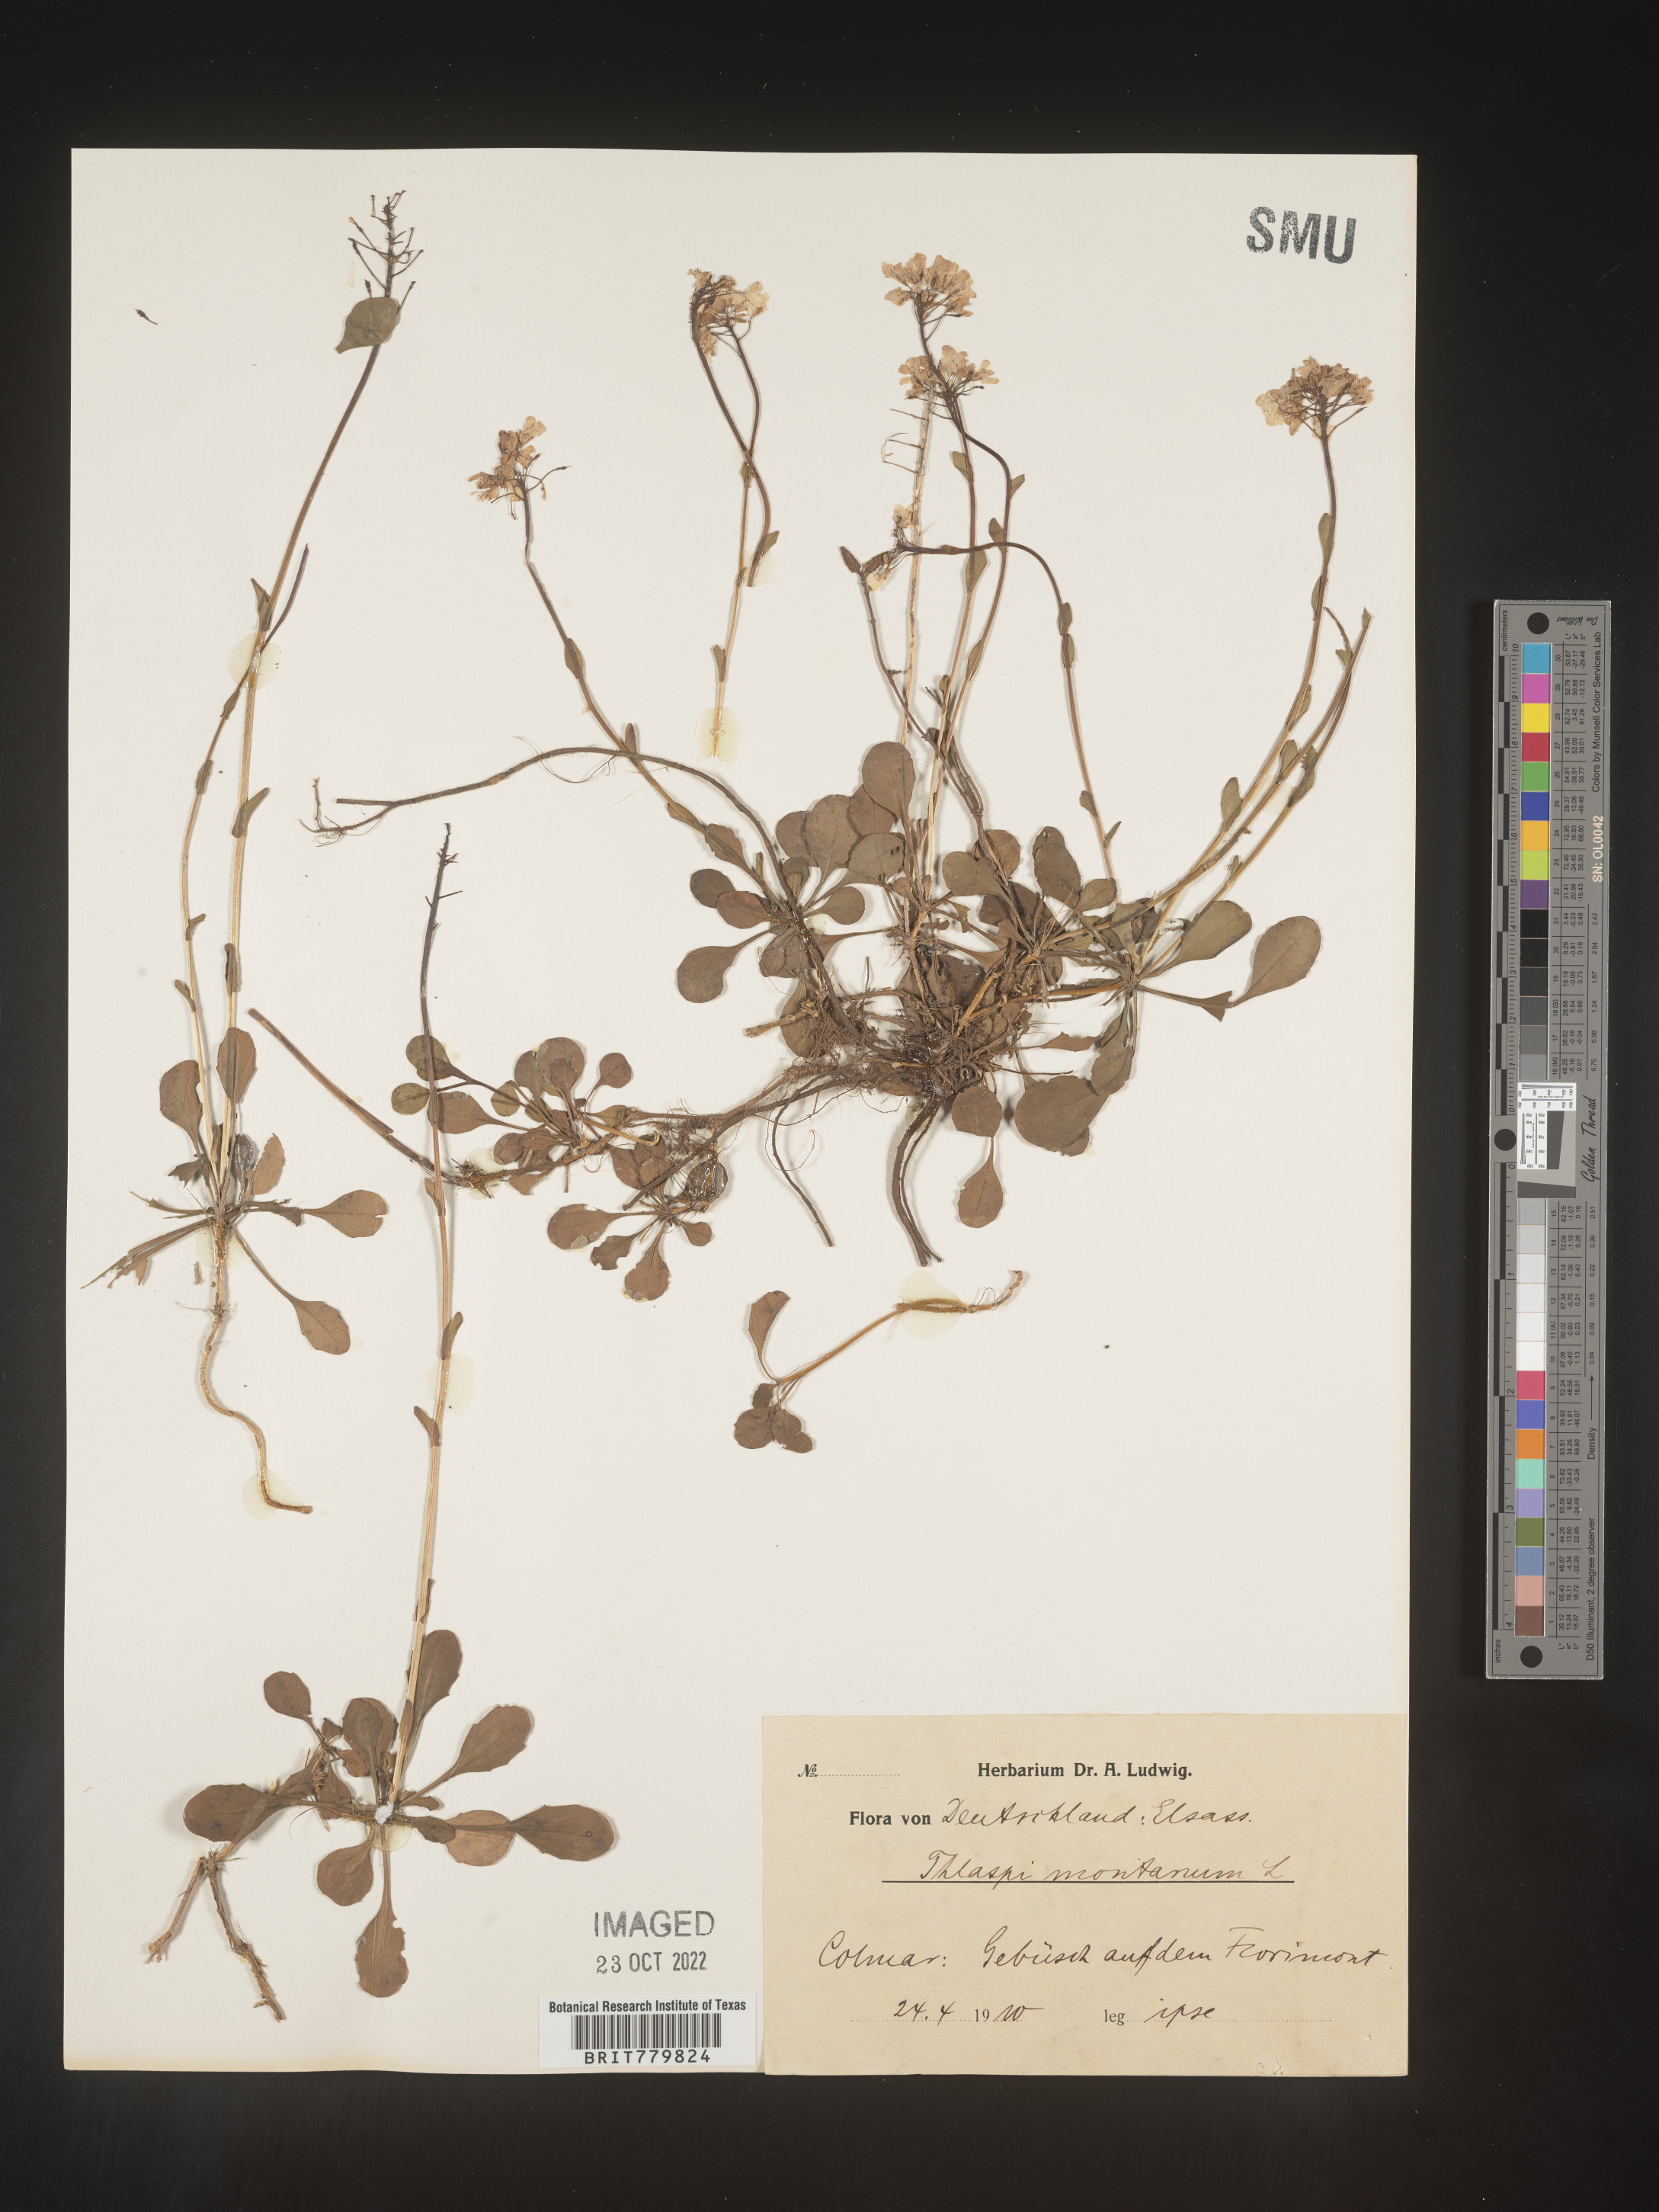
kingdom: Plantae
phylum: Tracheophyta
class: Magnoliopsida
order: Brassicales
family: Brassicaceae
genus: Thlaspi
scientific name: Thlaspi
